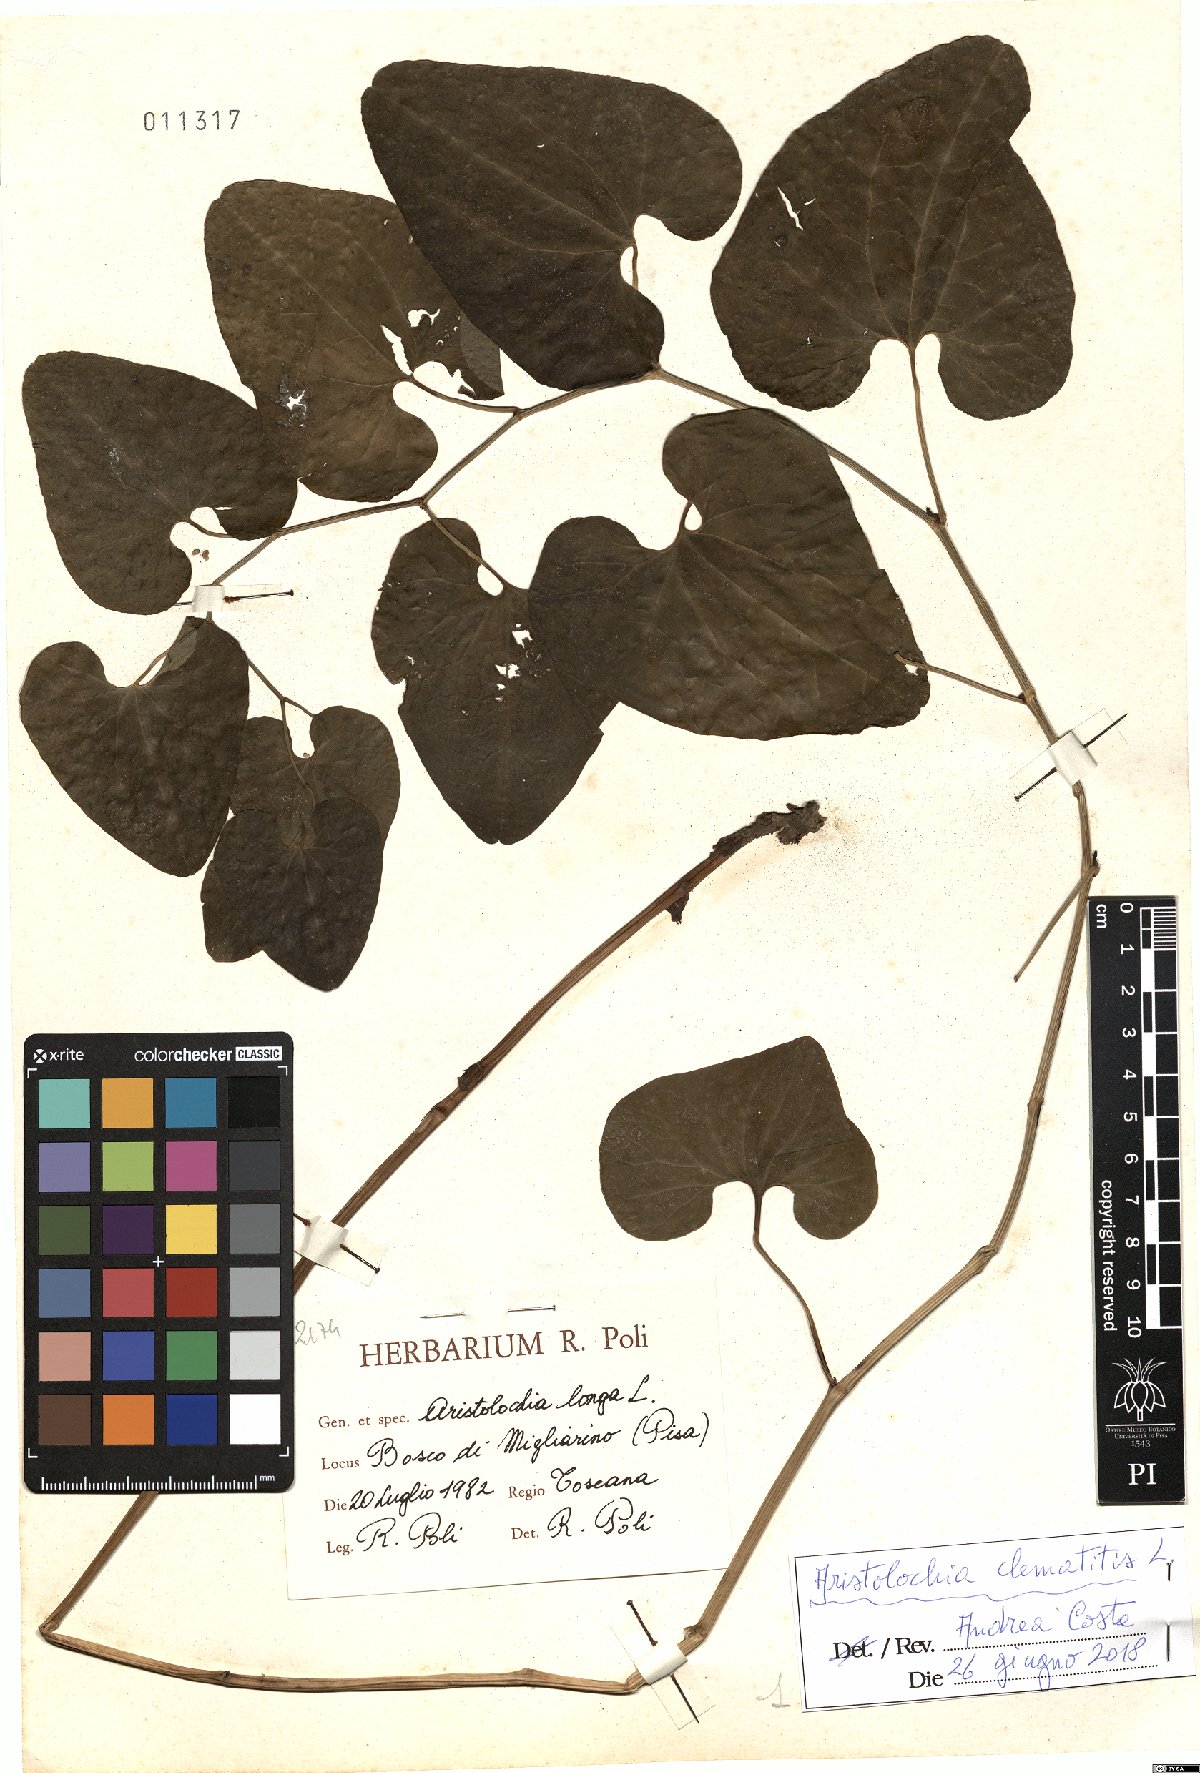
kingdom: Plantae
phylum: Tracheophyta
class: Magnoliopsida
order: Piperales
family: Aristolochiaceae
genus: Aristolochia
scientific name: Aristolochia clematitis
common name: Birthwort
